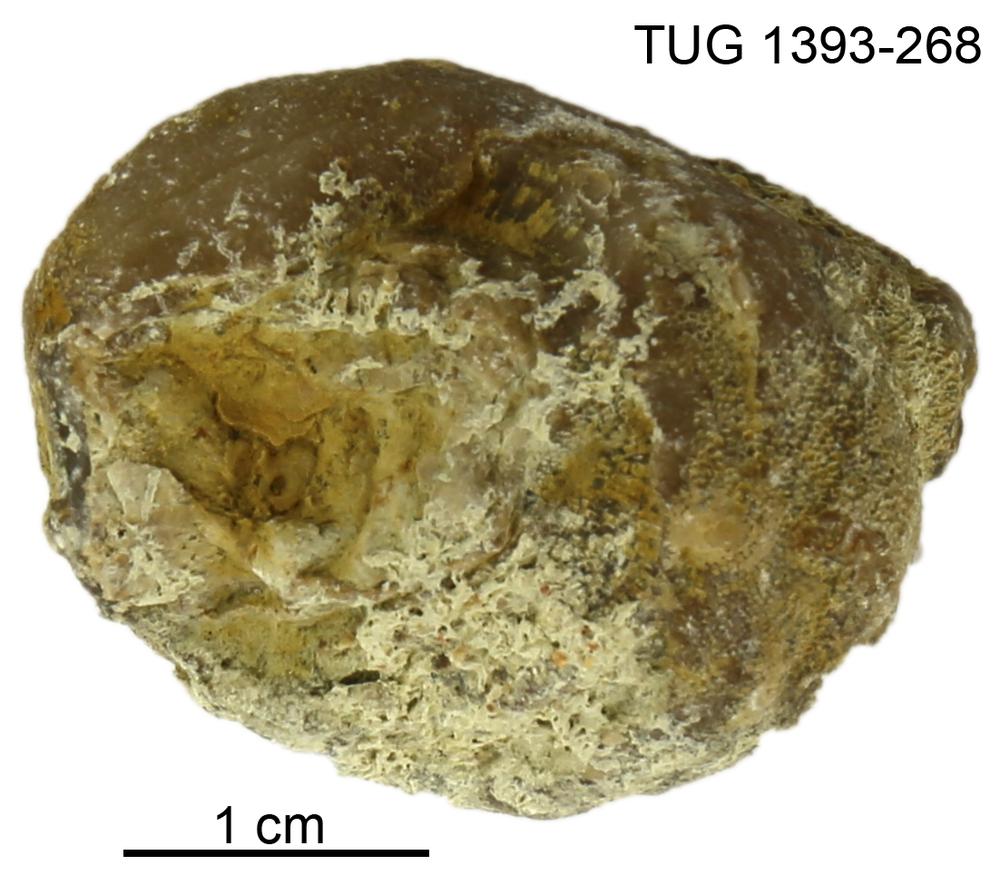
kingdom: Animalia
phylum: Bryozoa
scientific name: Bryozoa
